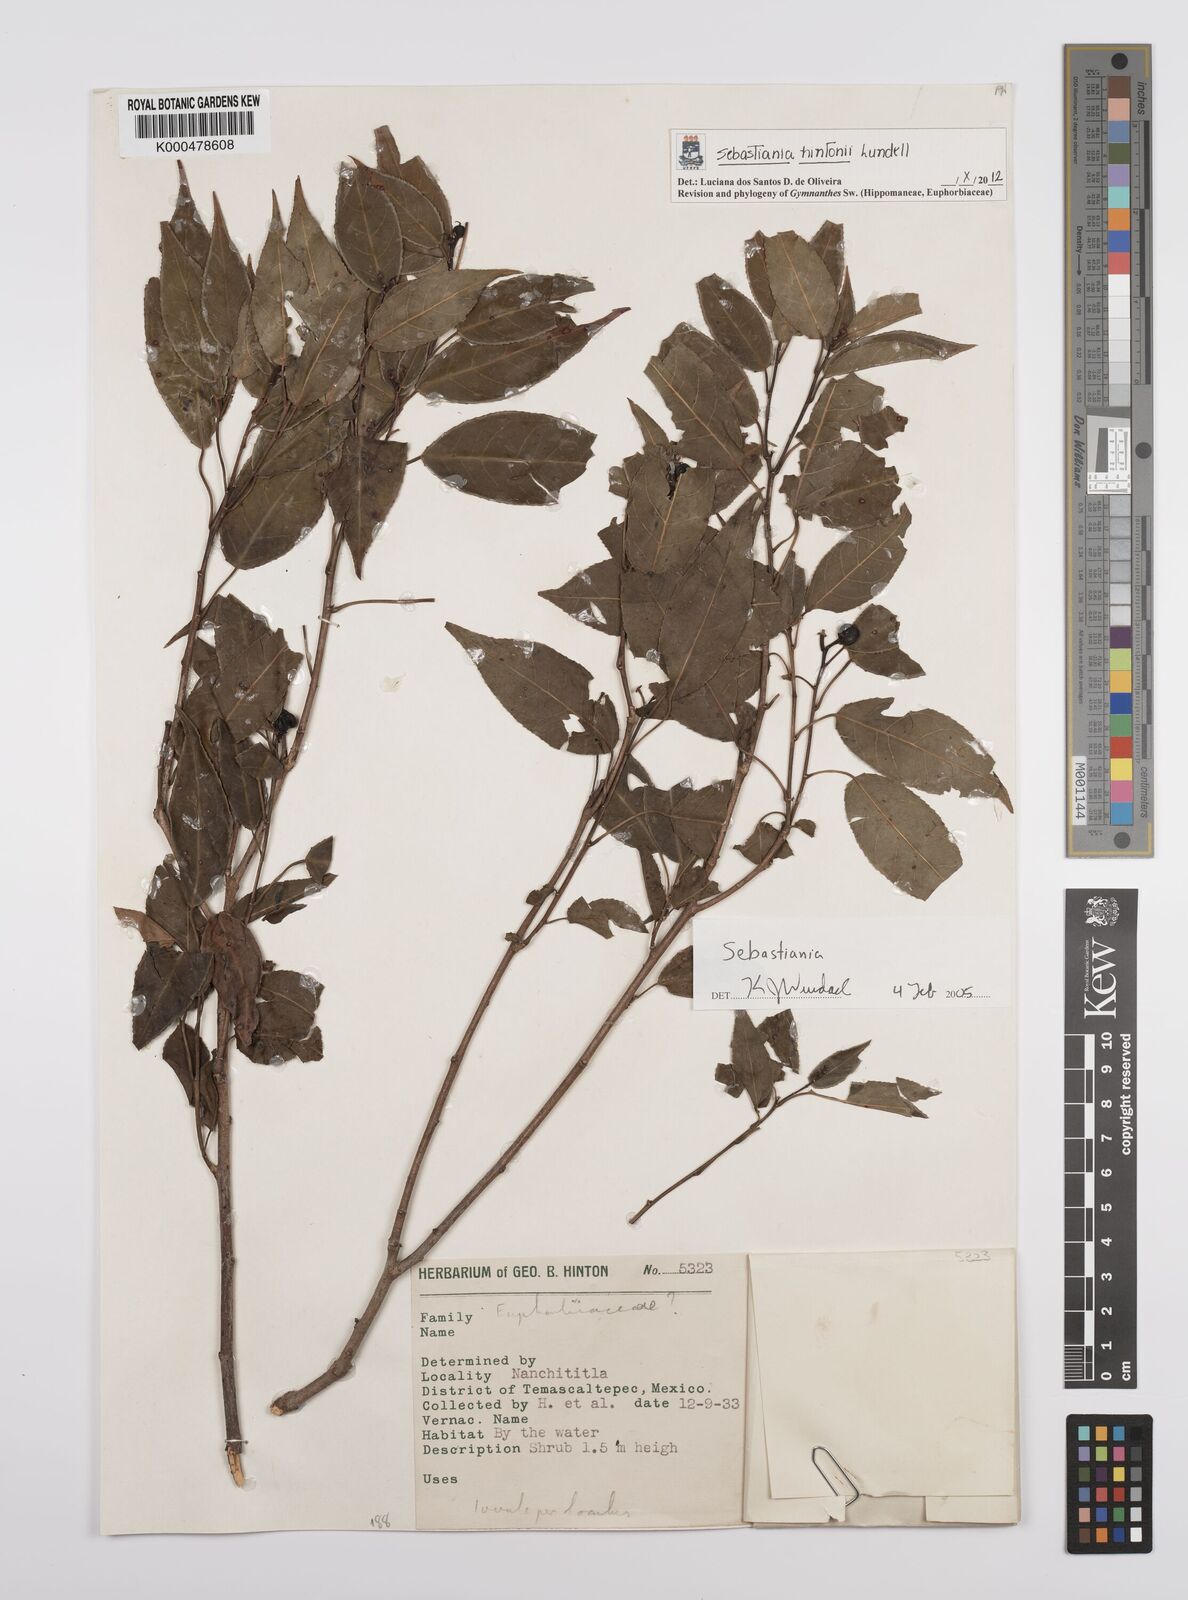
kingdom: Plantae
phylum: Tracheophyta
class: Magnoliopsida
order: Malpighiales
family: Euphorbiaceae
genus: Sebastiania
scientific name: Sebastiania
